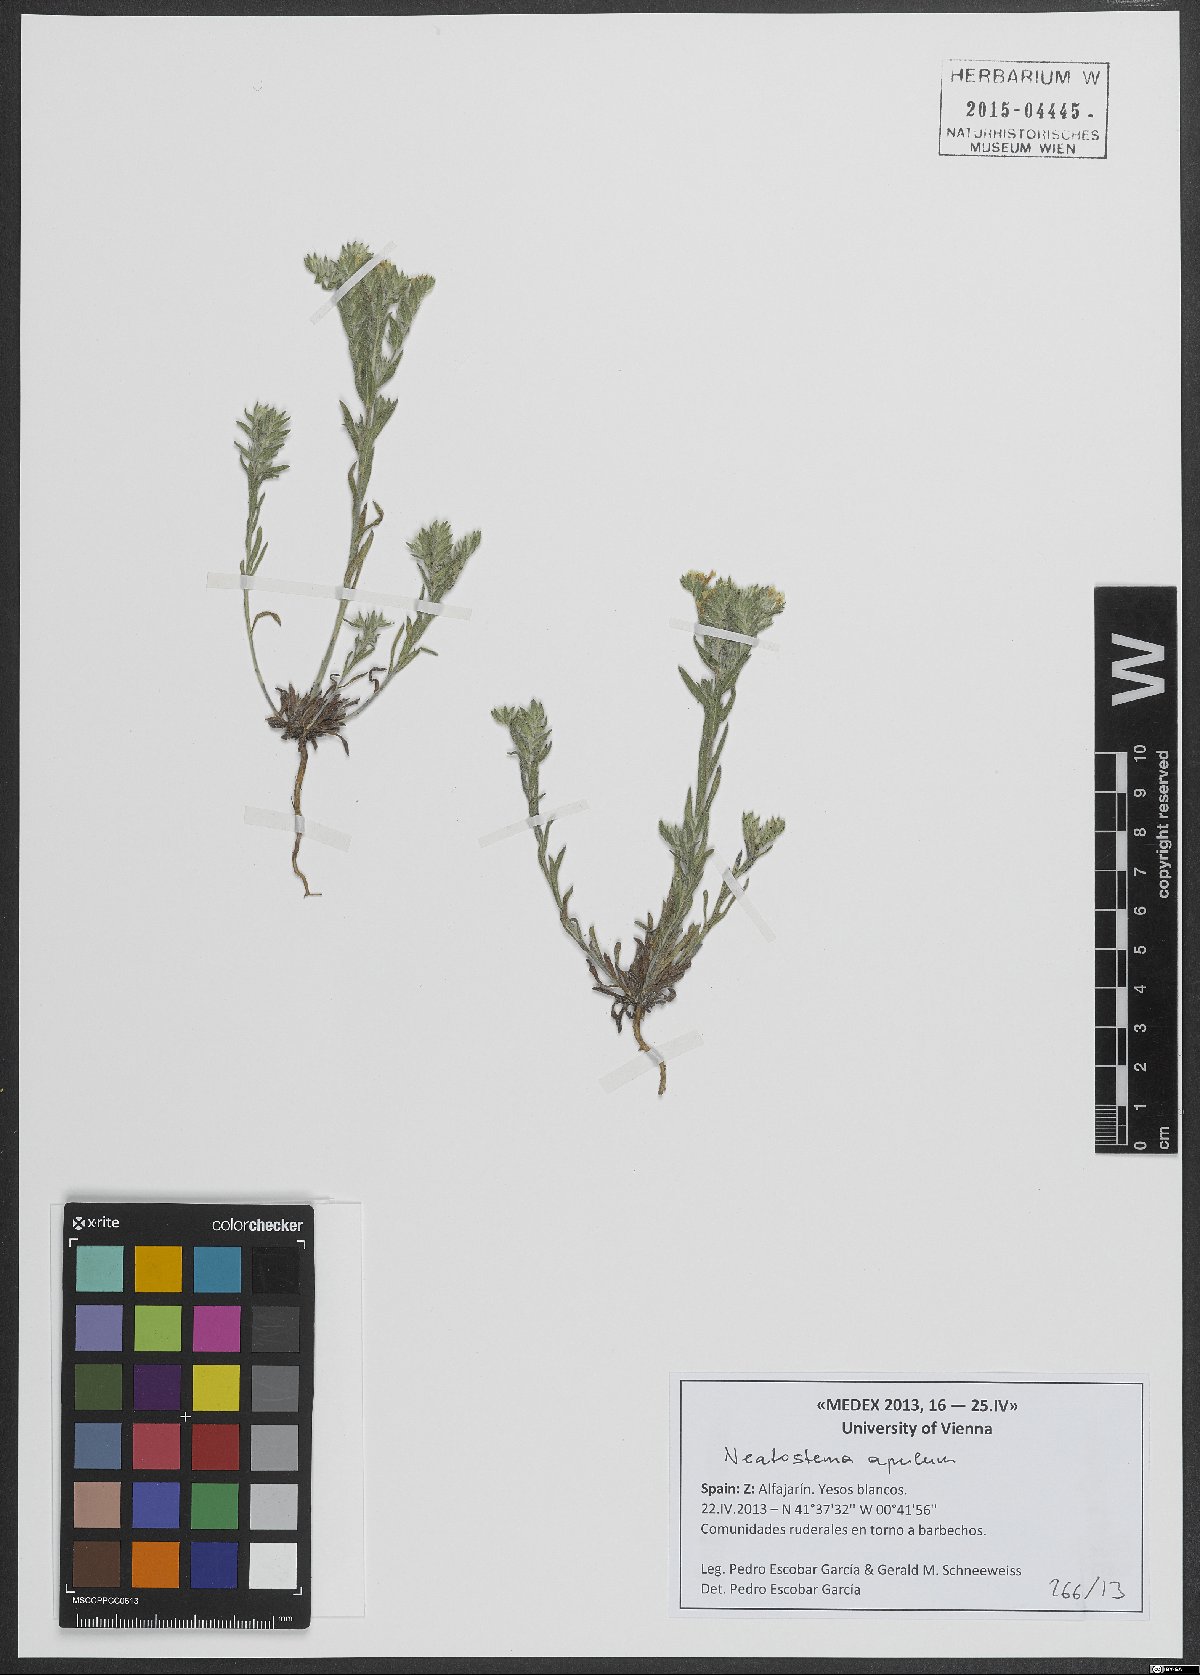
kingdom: Plantae
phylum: Tracheophyta
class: Magnoliopsida
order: Boraginales
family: Boraginaceae
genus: Neatostema
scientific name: Neatostema apulum
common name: Hairy sheepweed
